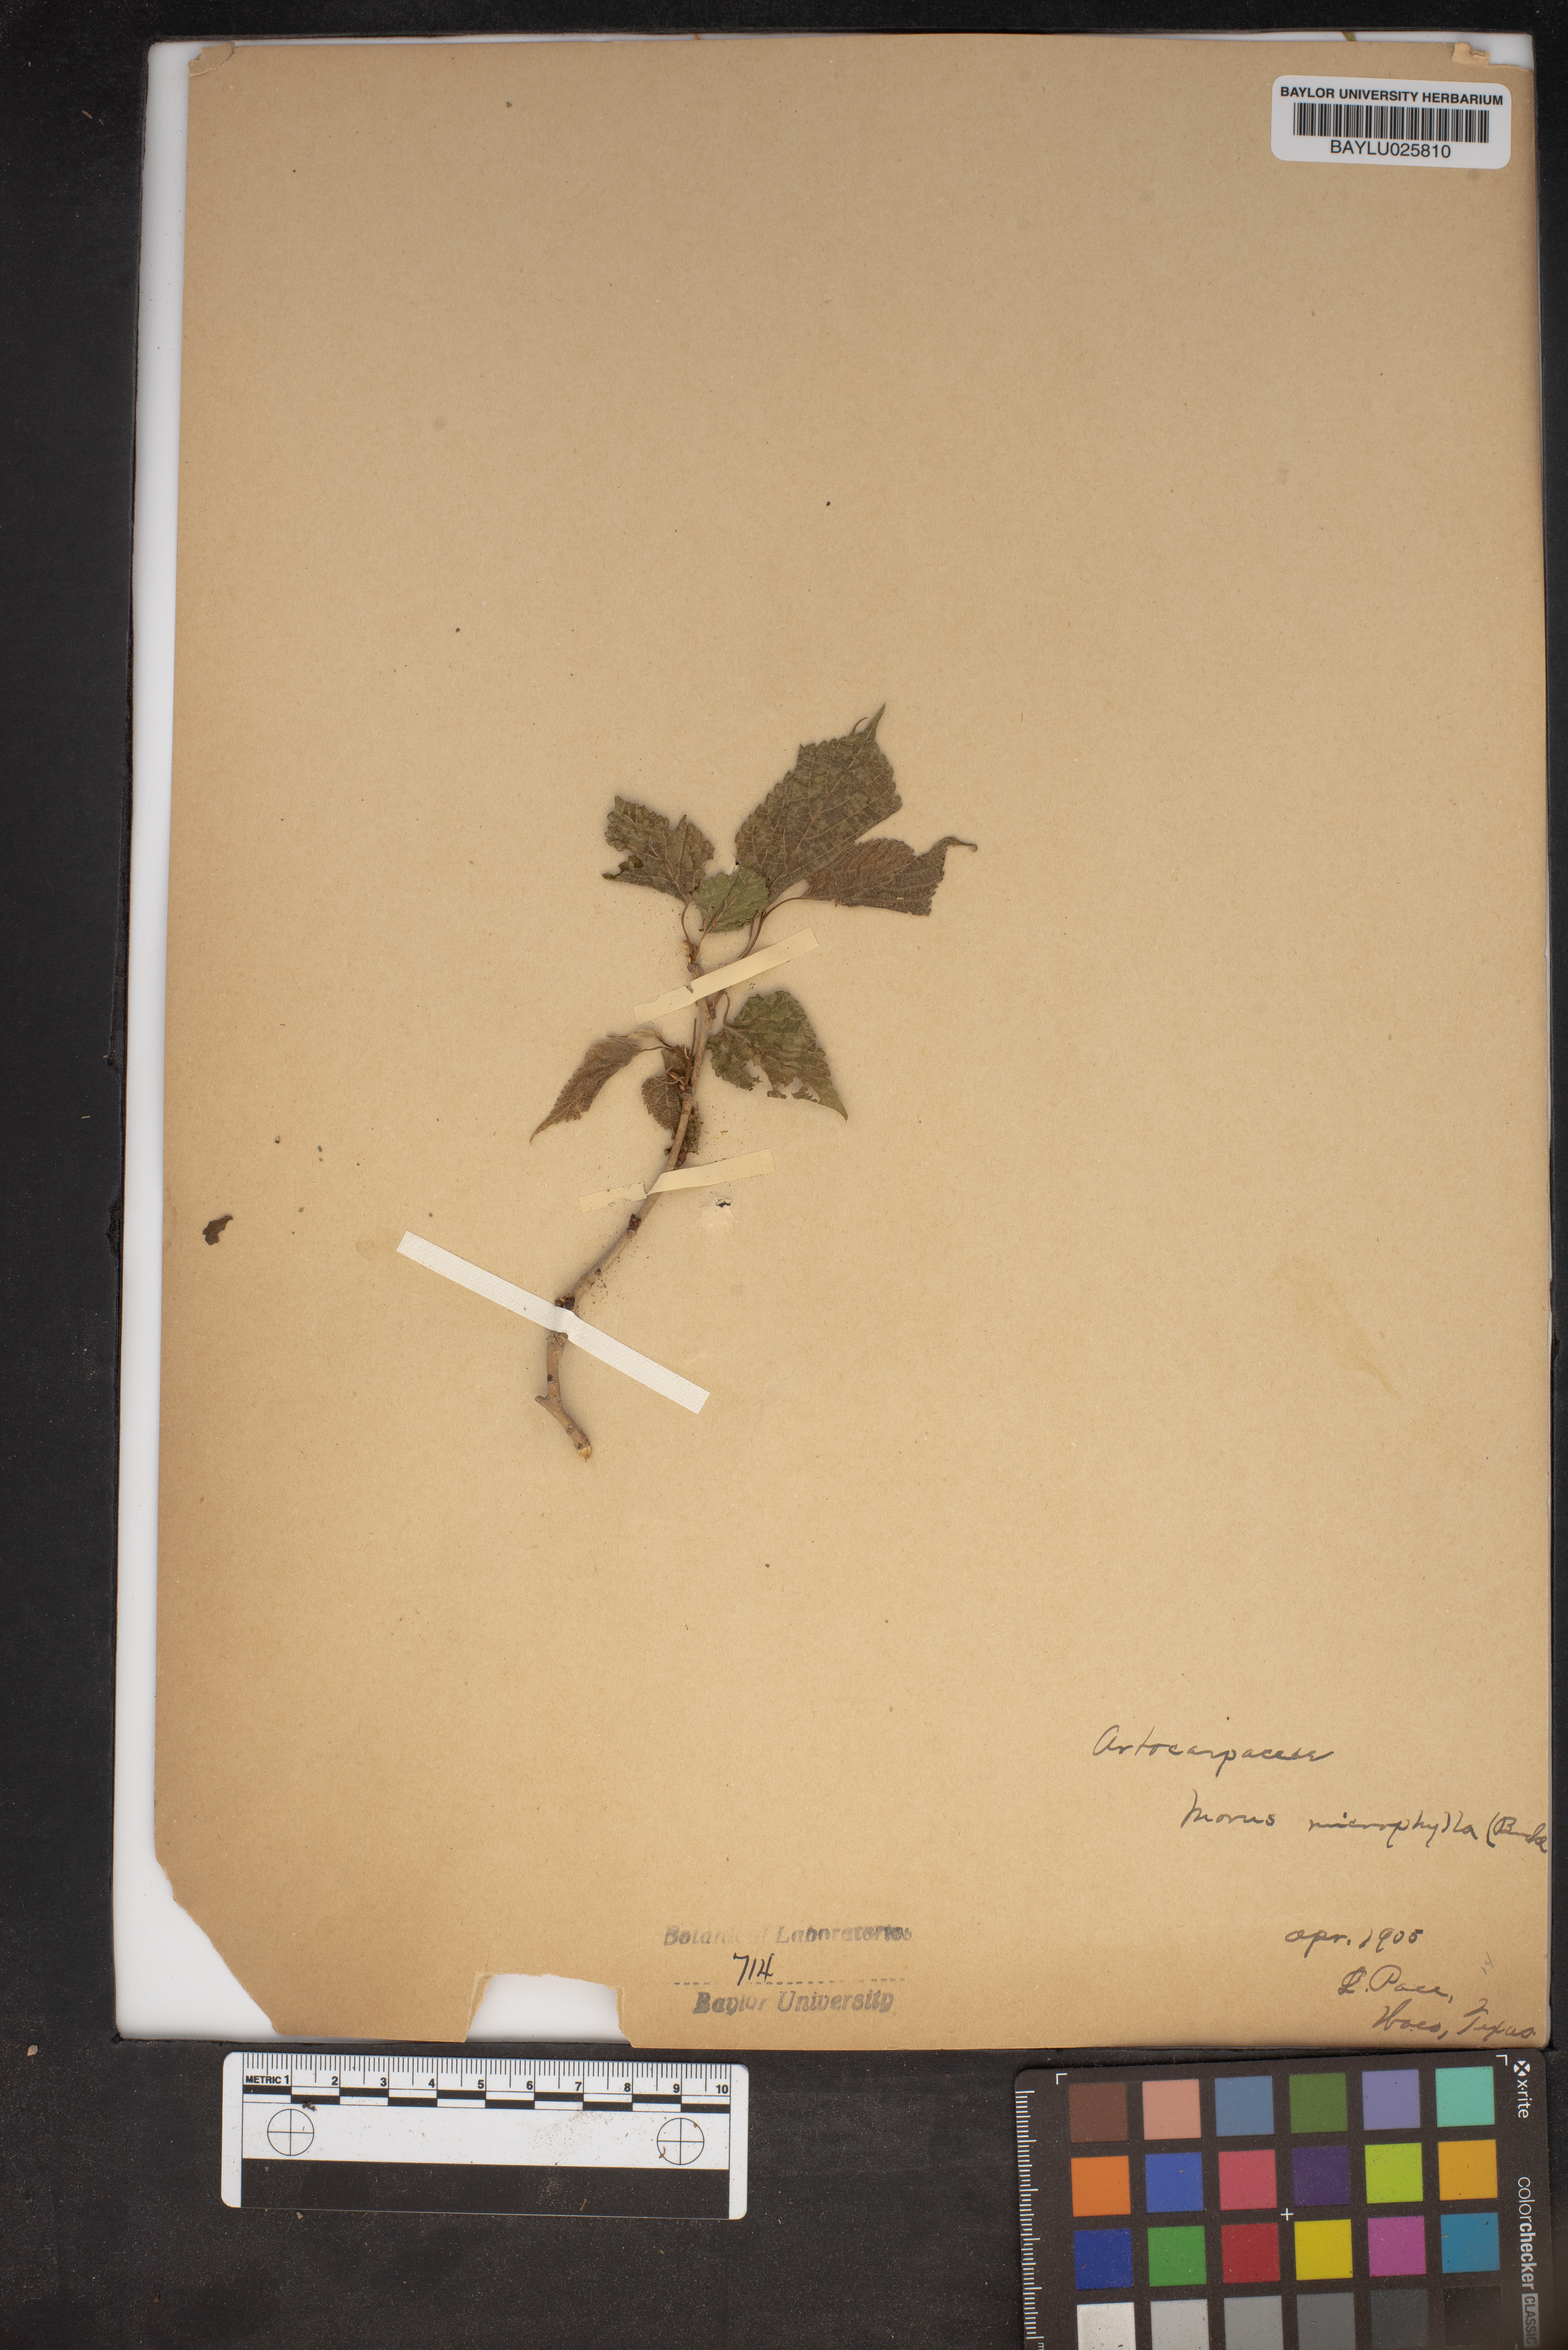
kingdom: Plantae
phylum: Tracheophyta
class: Magnoliopsida
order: Rosales
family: Moraceae
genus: Morus
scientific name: Morus microphylla
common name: Mexican mulberry
